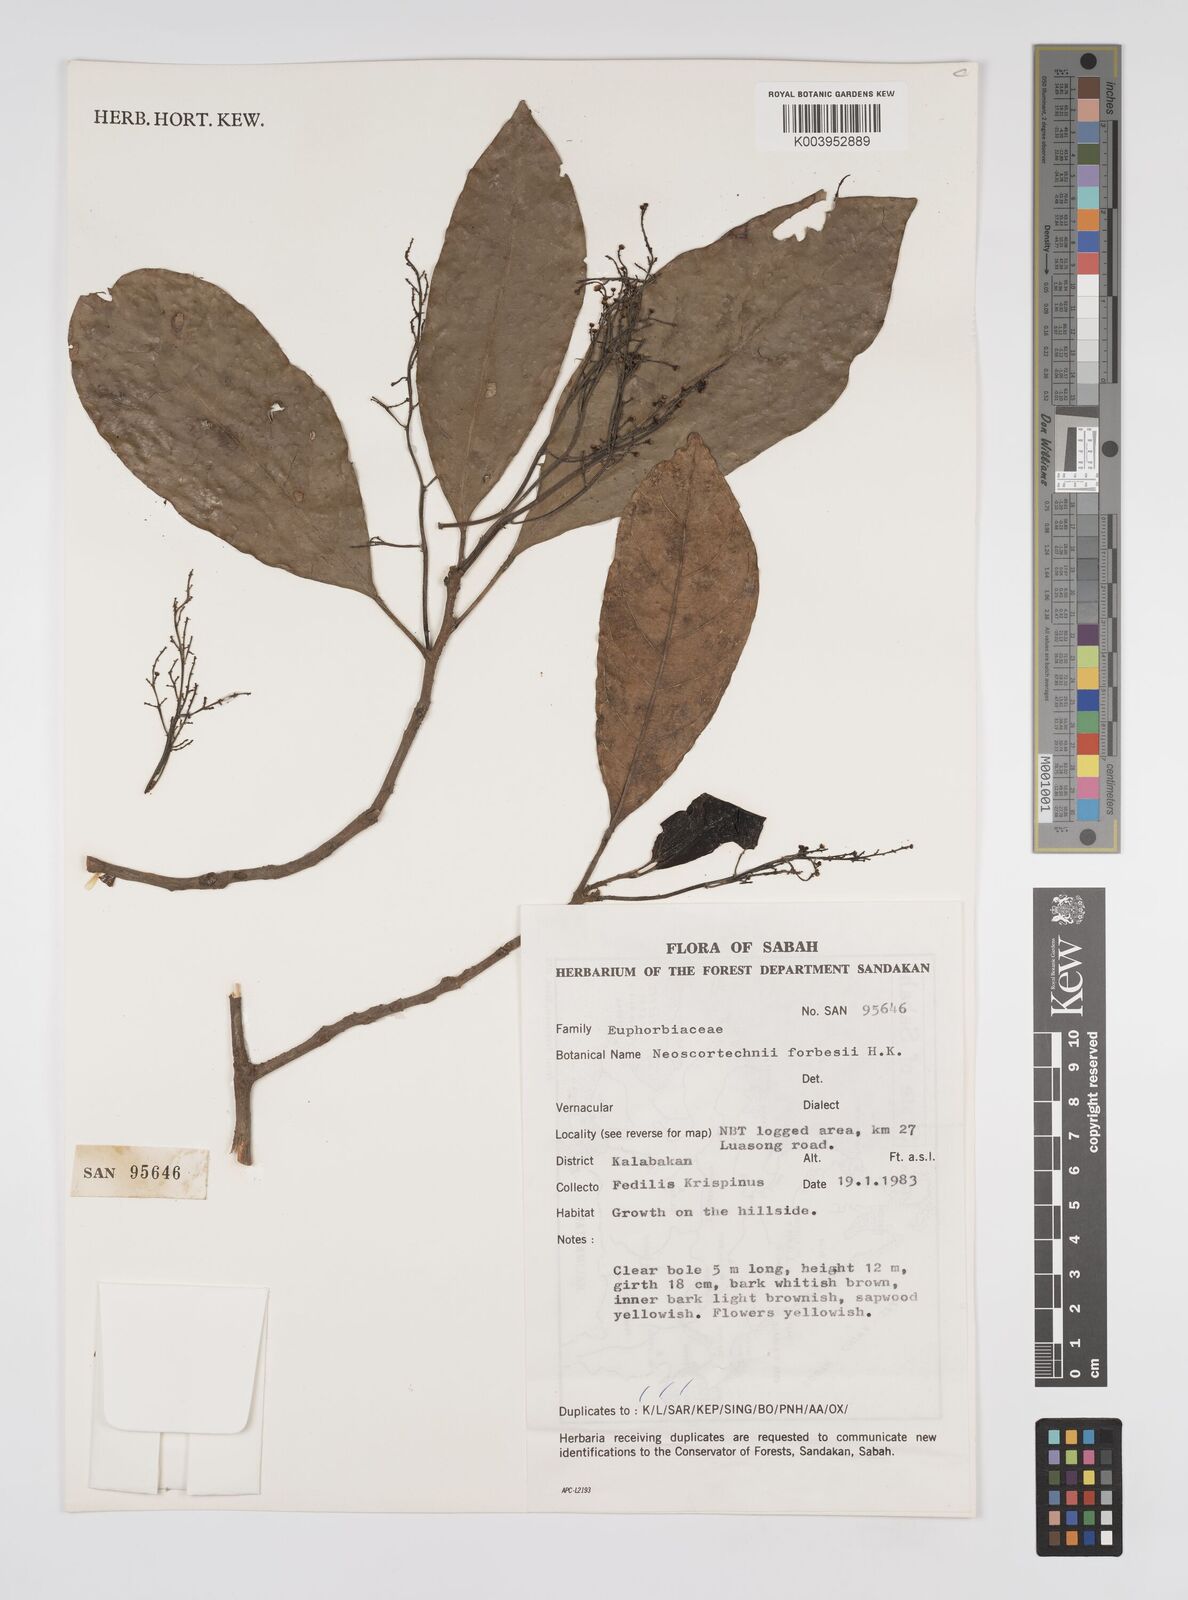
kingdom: Plantae
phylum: Tracheophyta
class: Magnoliopsida
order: Malpighiales
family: Euphorbiaceae
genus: Neoscortechinia
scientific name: Neoscortechinia philippinensis
